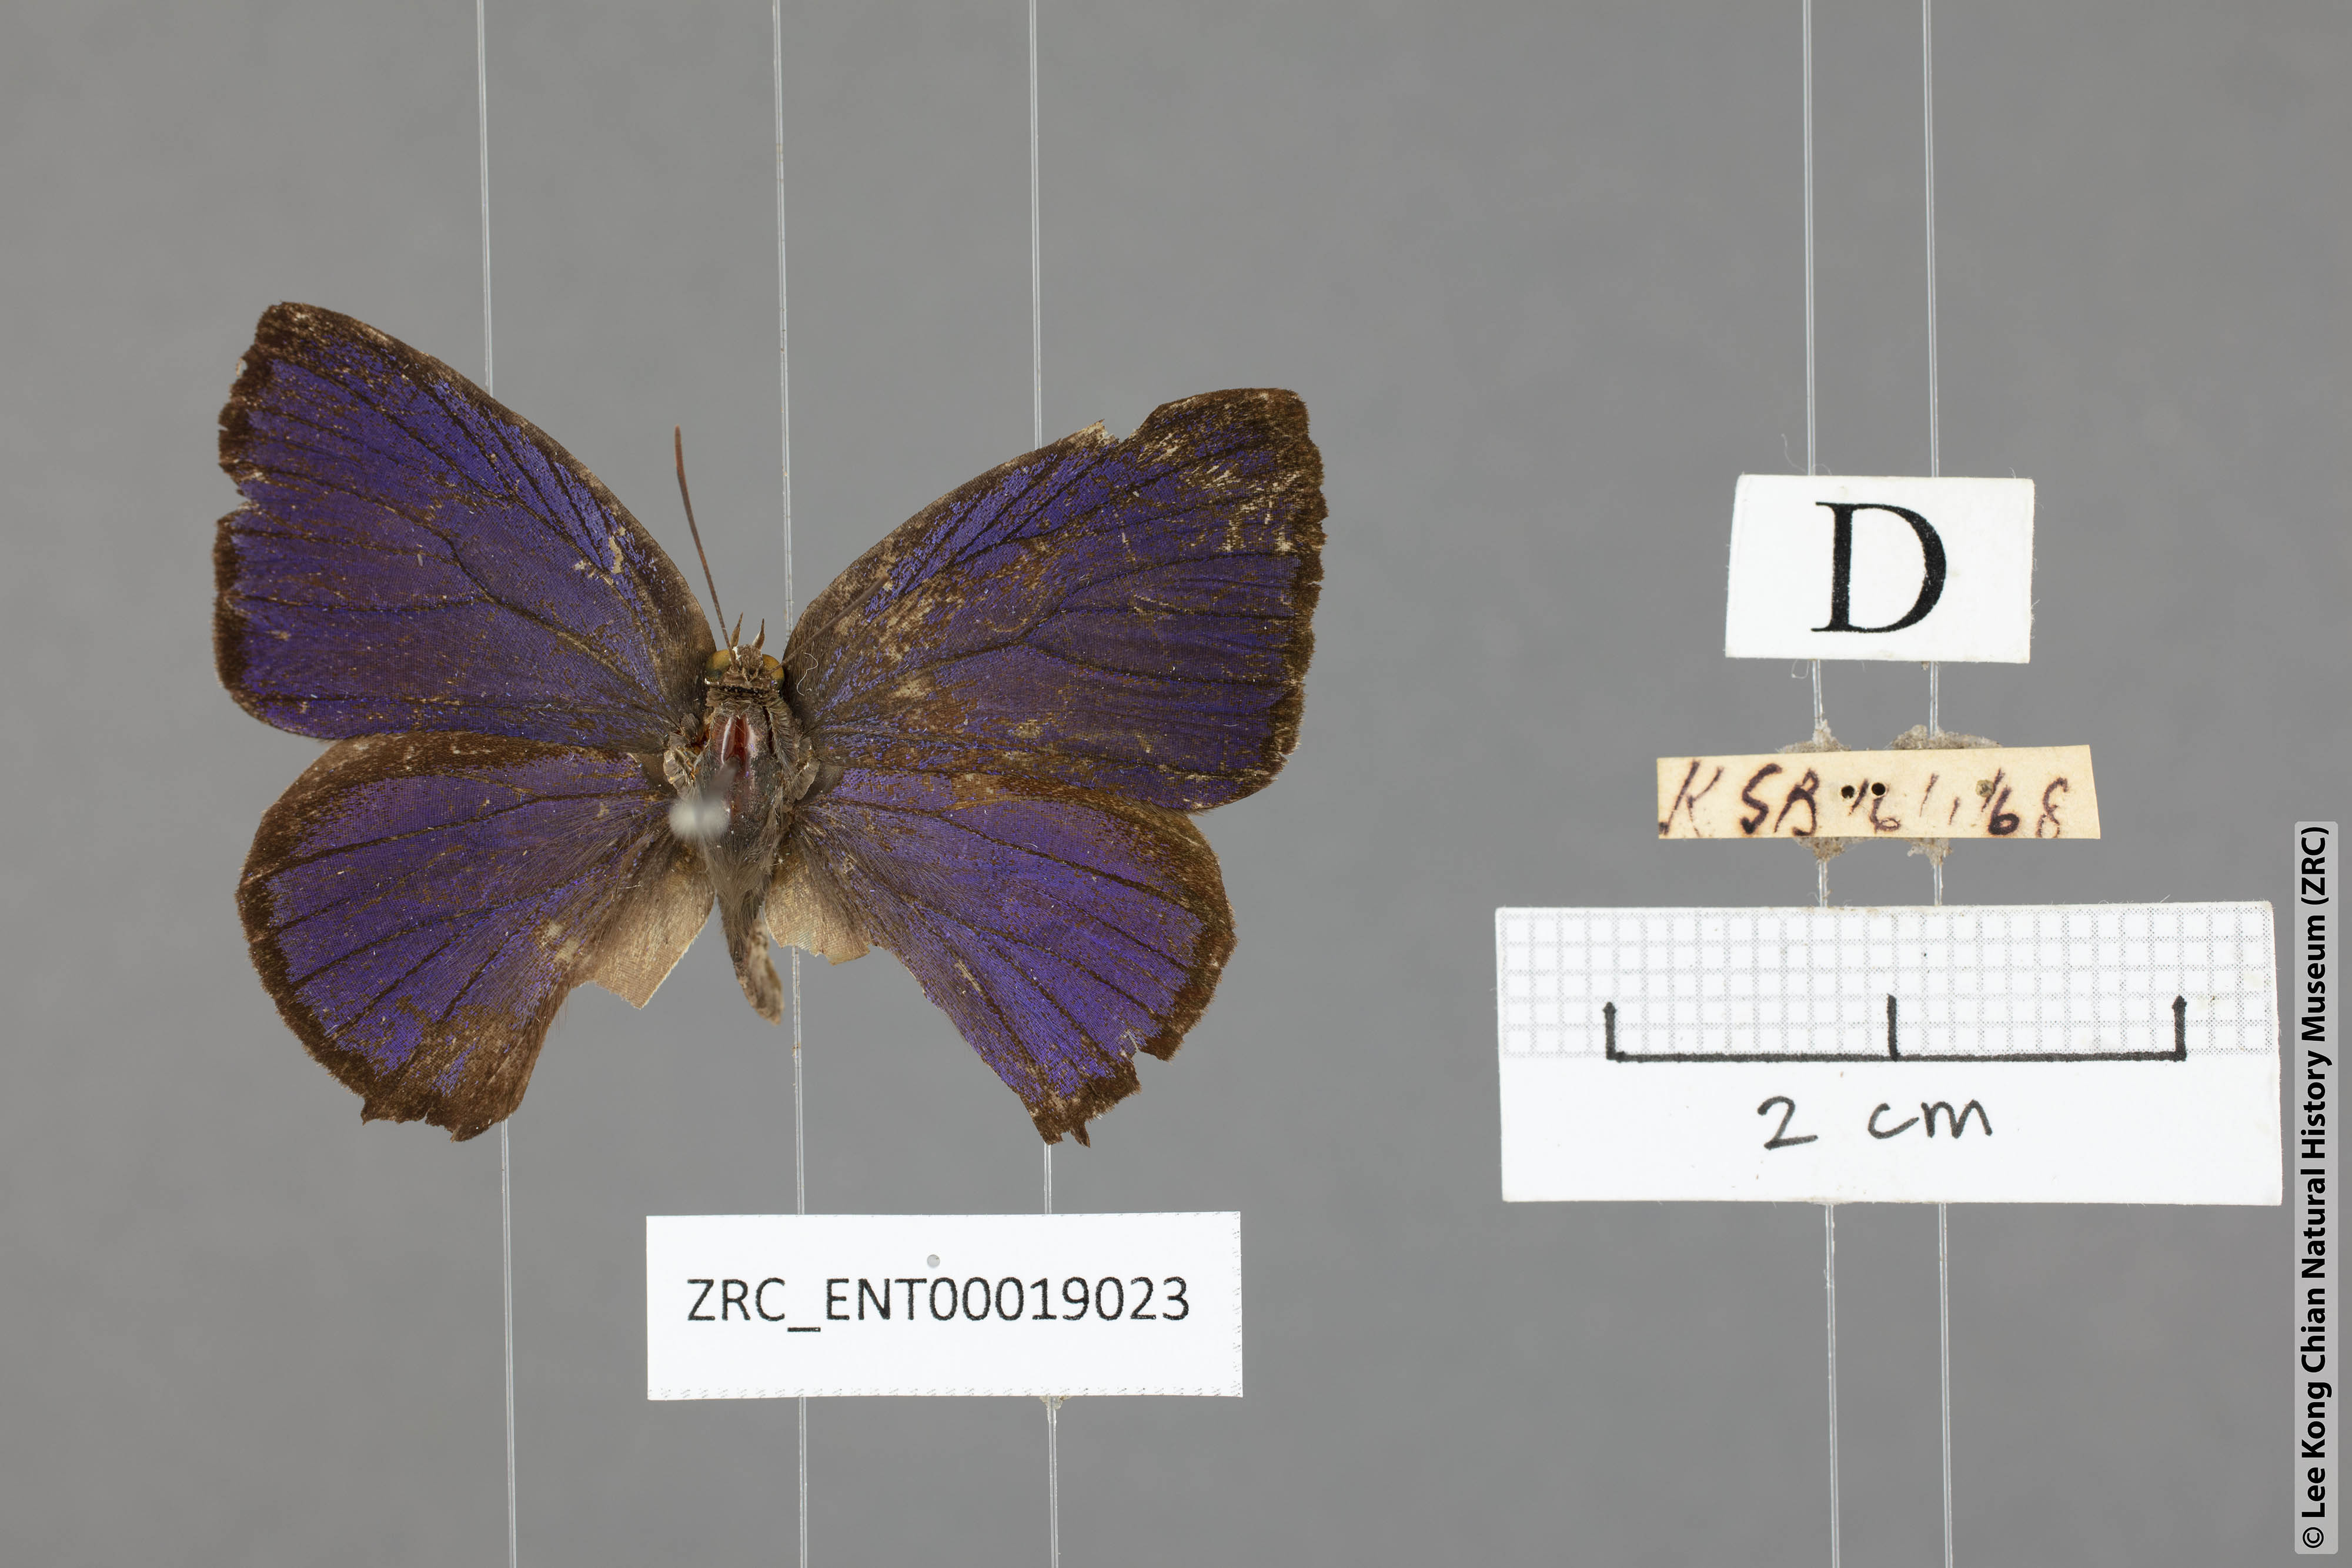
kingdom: Animalia
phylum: Arthropoda
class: Insecta
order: Lepidoptera
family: Lycaenidae
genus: Arhopala
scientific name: Arhopala
